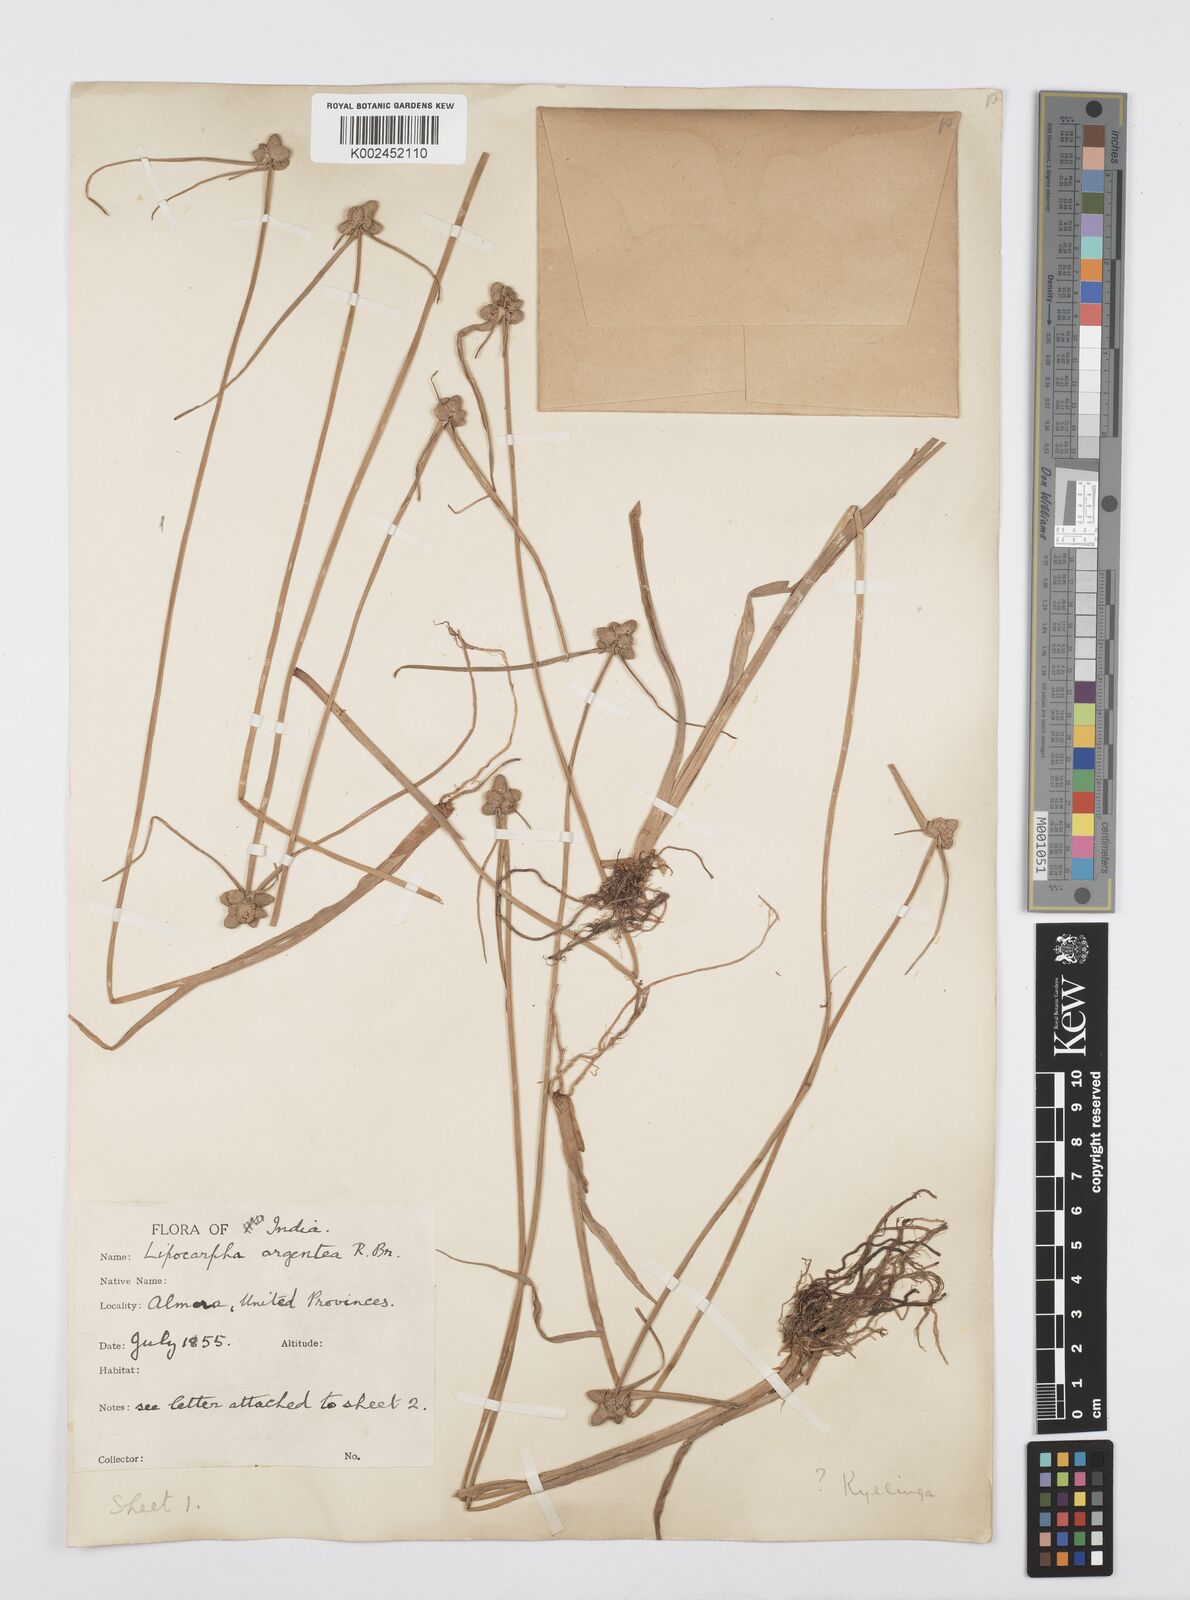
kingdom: Plantae
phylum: Tracheophyta
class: Liliopsida
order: Poales
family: Cyperaceae
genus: Cyperus
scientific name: Cyperus
